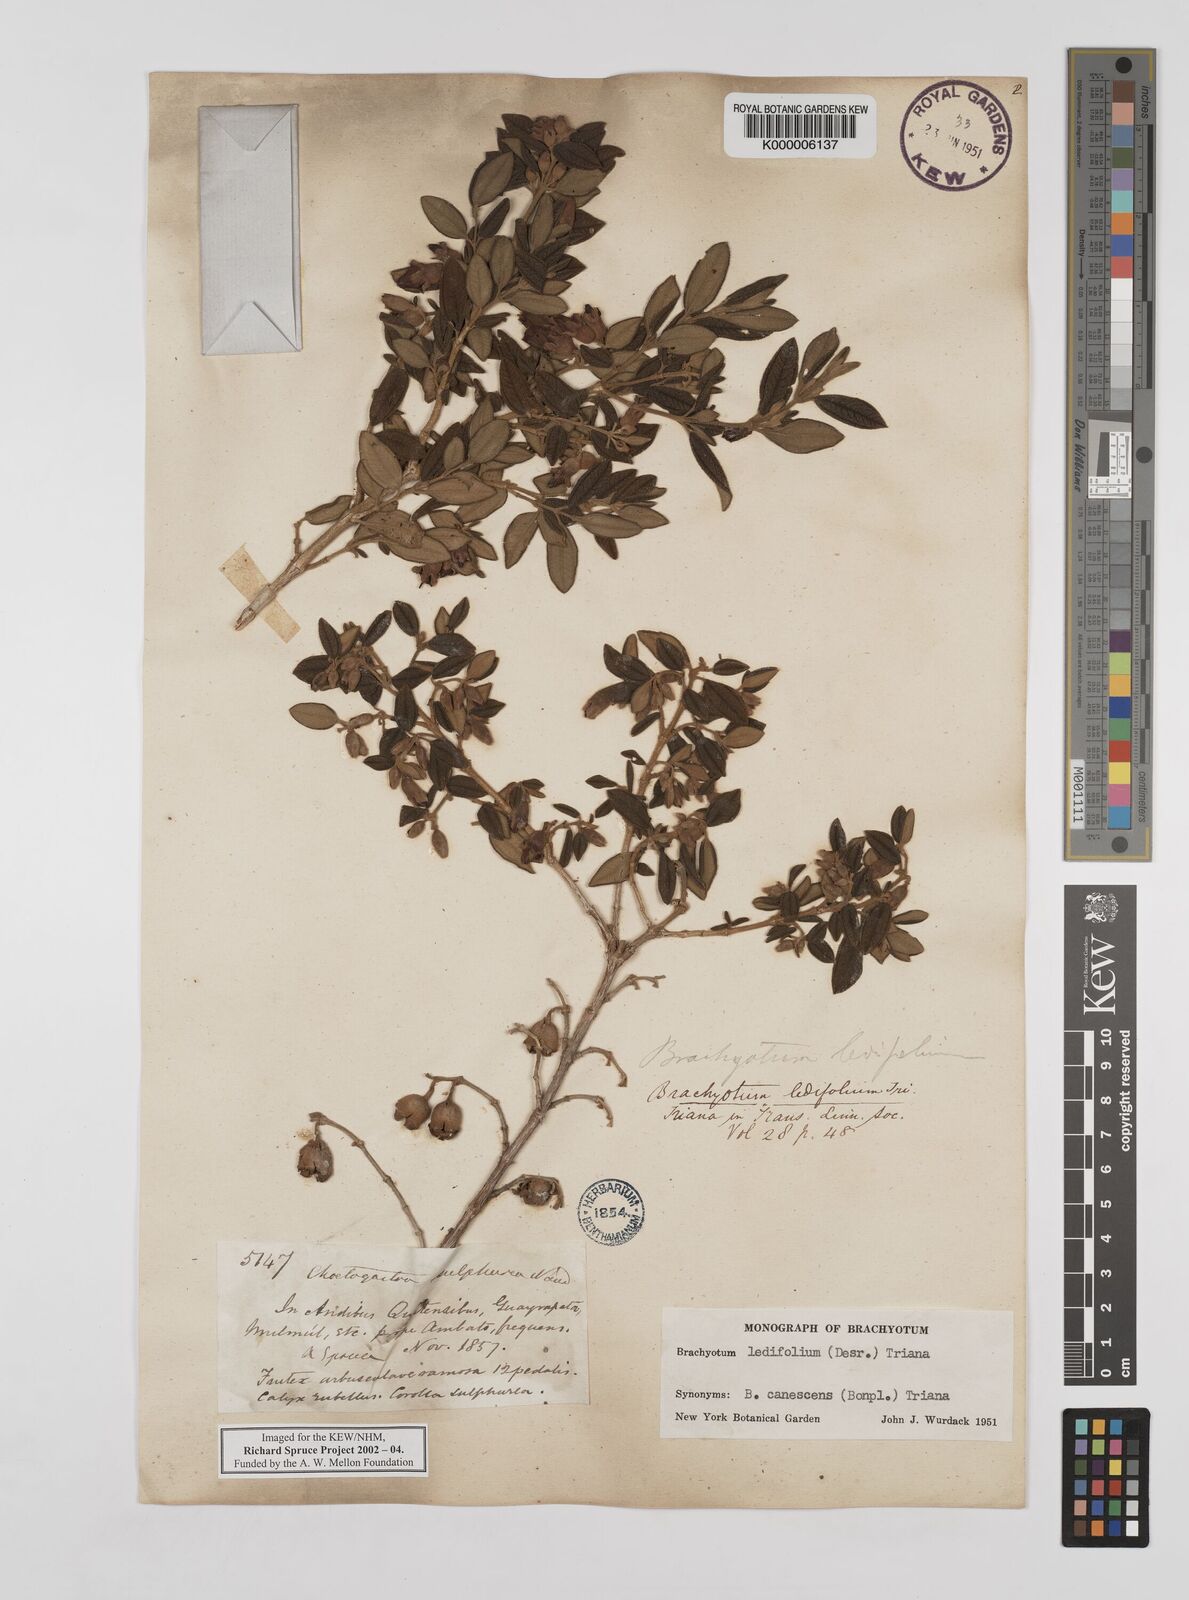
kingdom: Plantae
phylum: Tracheophyta
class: Magnoliopsida
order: Myrtales
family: Melastomataceae
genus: Brachyotum
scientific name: Brachyotum ledifolium
